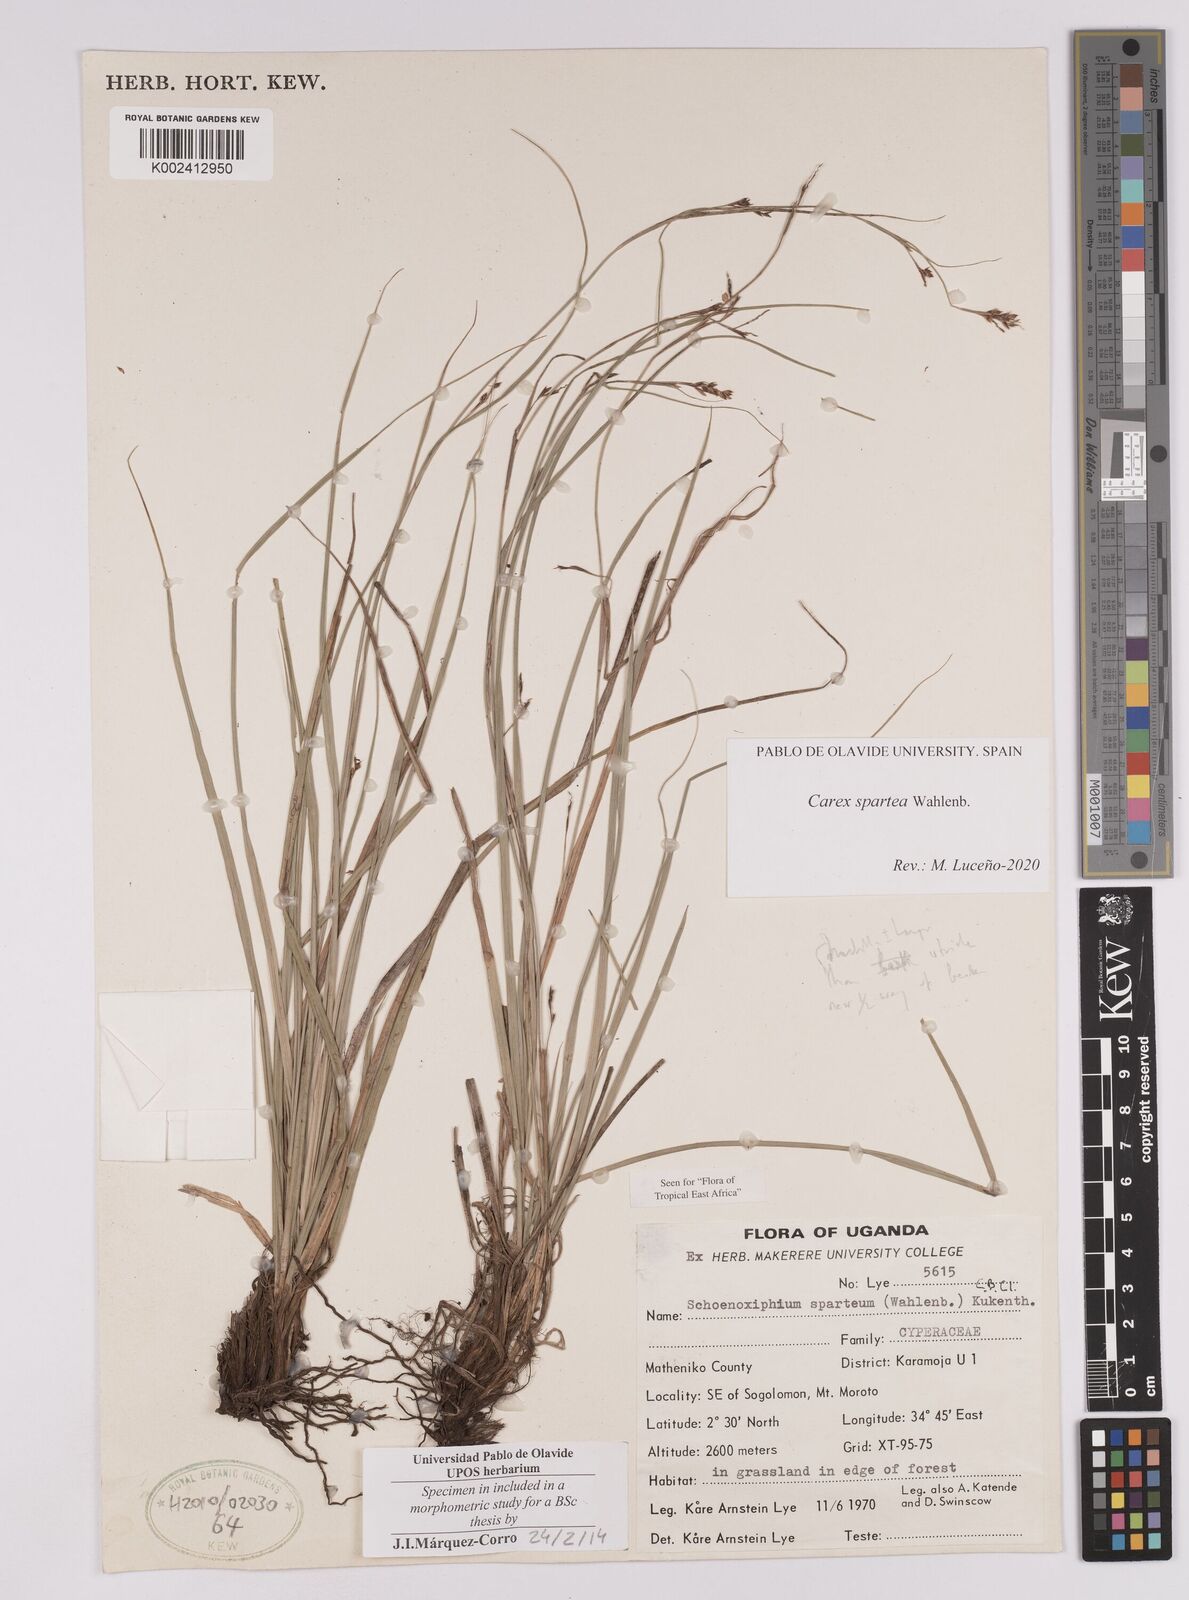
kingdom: Plantae
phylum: Tracheophyta
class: Liliopsida
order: Poales
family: Cyperaceae
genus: Carex
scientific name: Carex schimperiana
